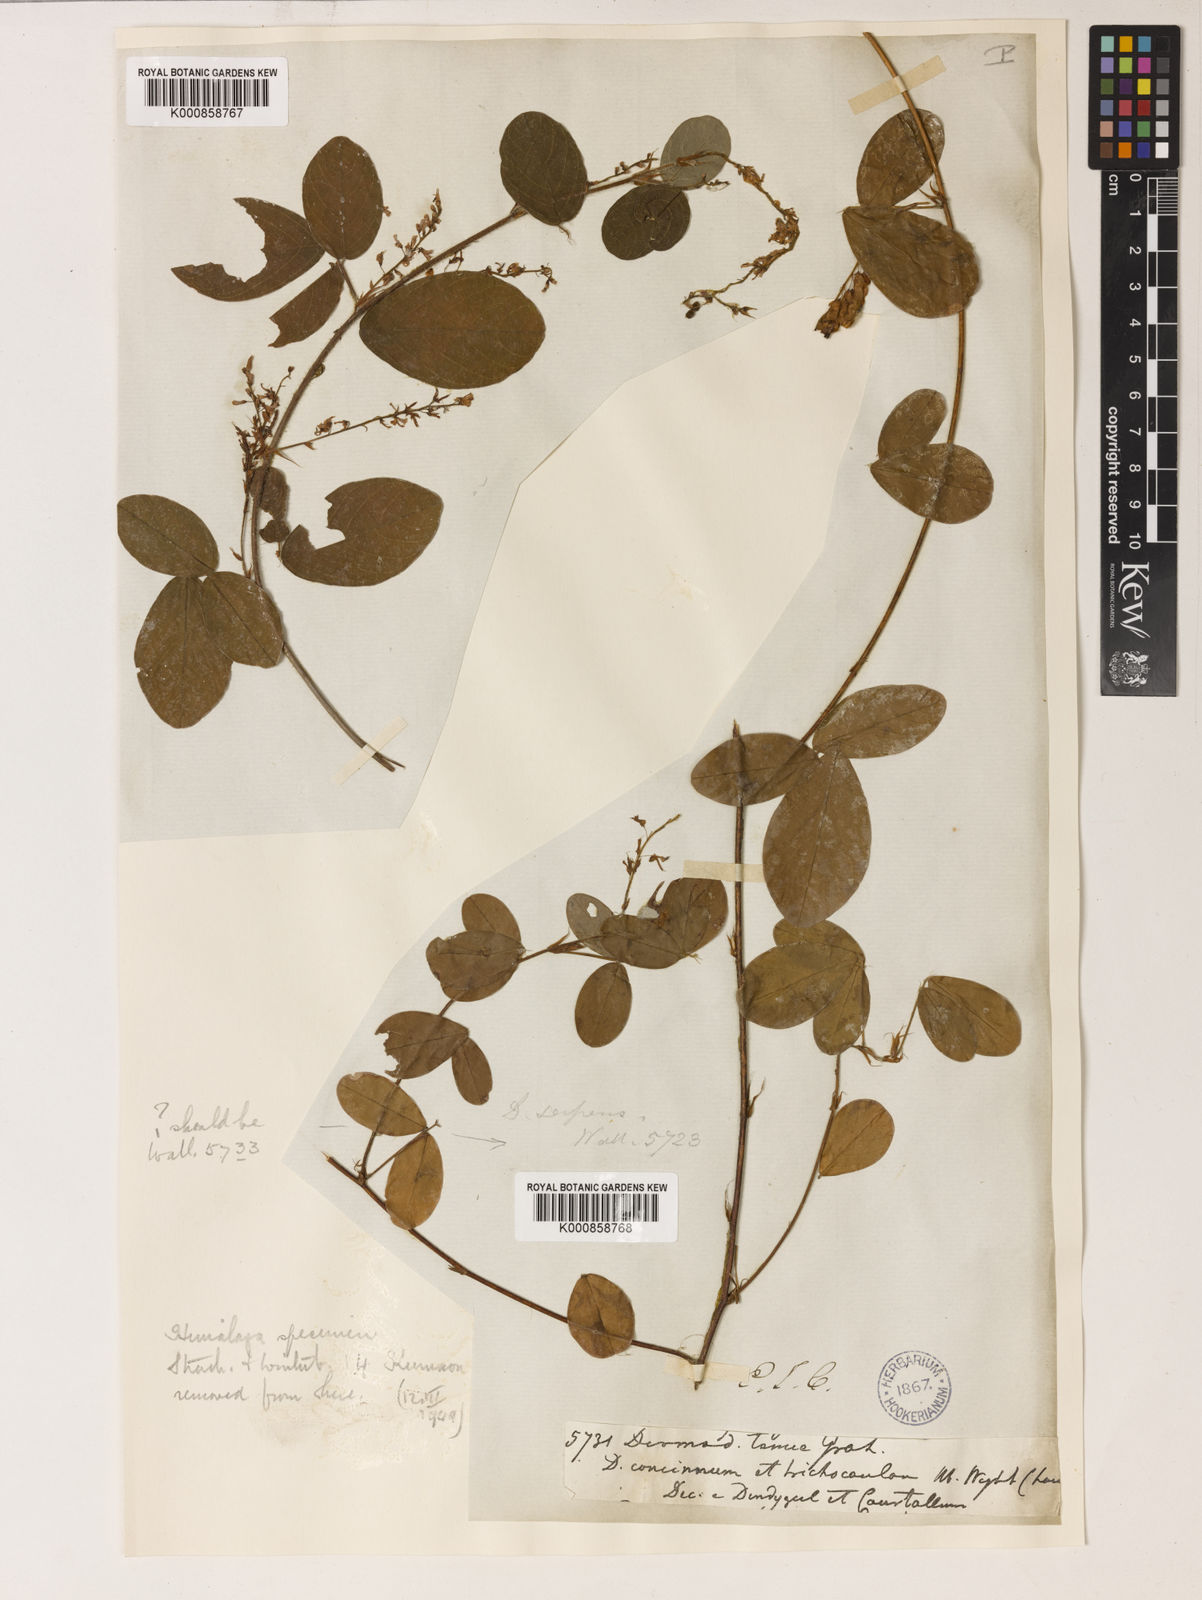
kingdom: Plantae
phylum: Tracheophyta
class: Magnoliopsida
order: Fabales
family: Fabaceae
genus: Grona
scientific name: Grona heterocarpos
